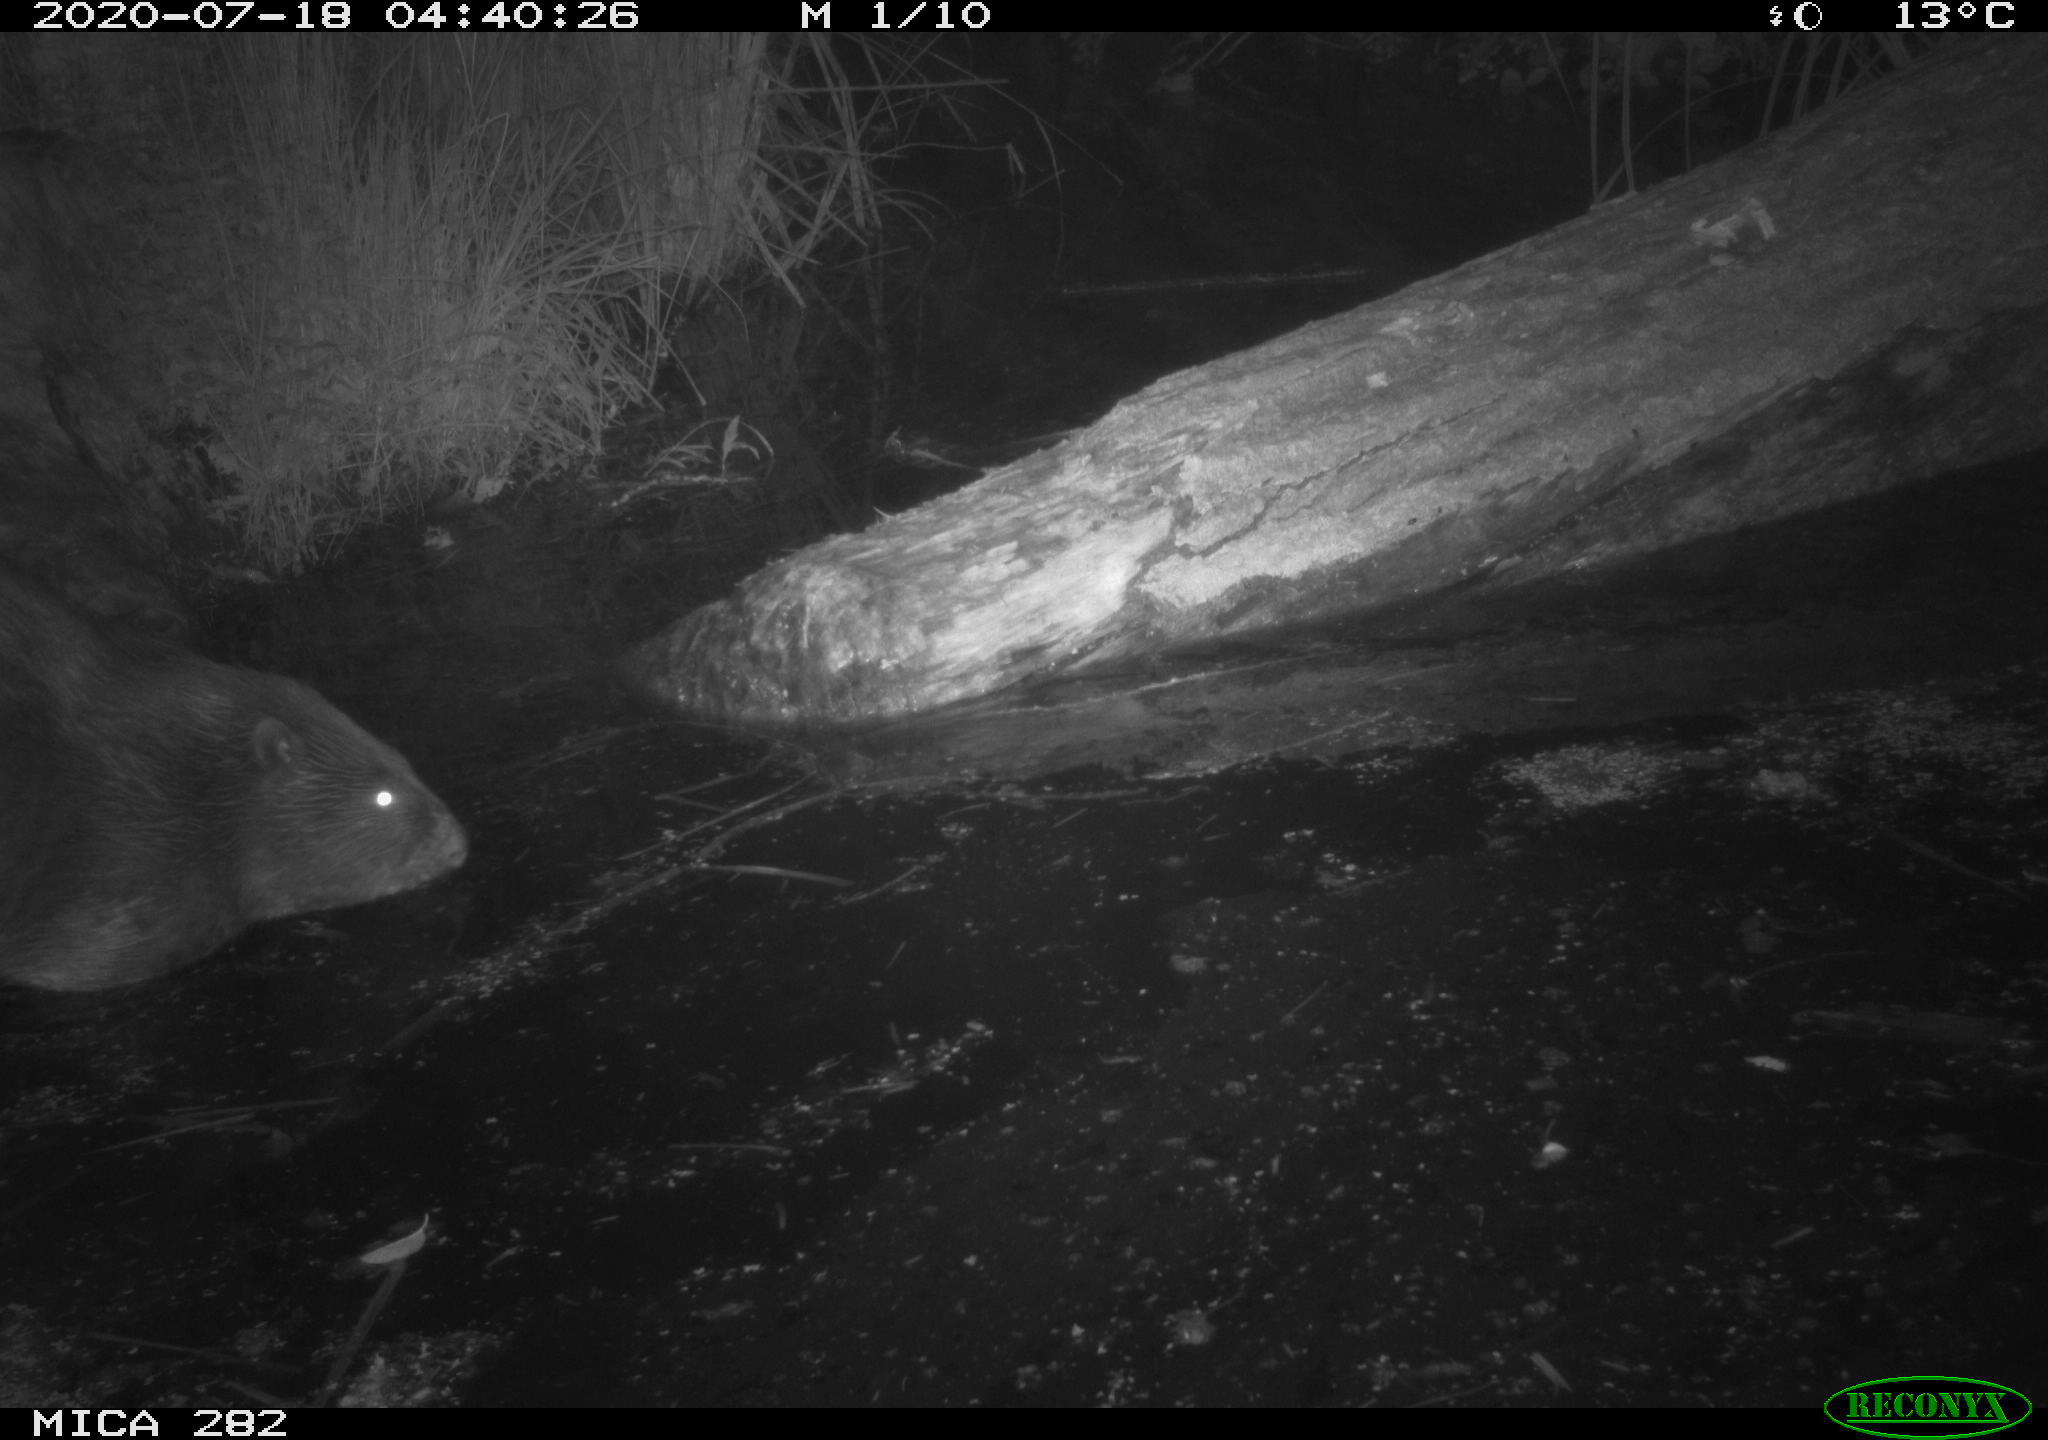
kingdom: Animalia
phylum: Chordata
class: Mammalia
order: Rodentia
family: Castoridae
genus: Castor
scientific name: Castor fiber
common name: Eurasian beaver
